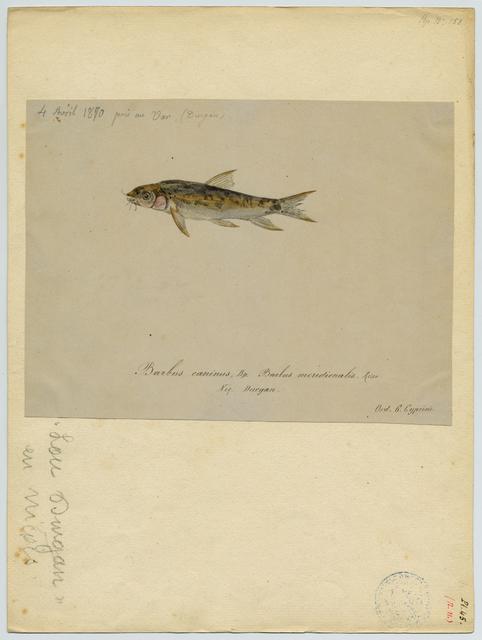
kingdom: Animalia
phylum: Chordata
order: Cypriniformes
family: Cyprinidae
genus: Barbus
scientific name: Barbus meridionalis
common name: Mediterranean barbel
